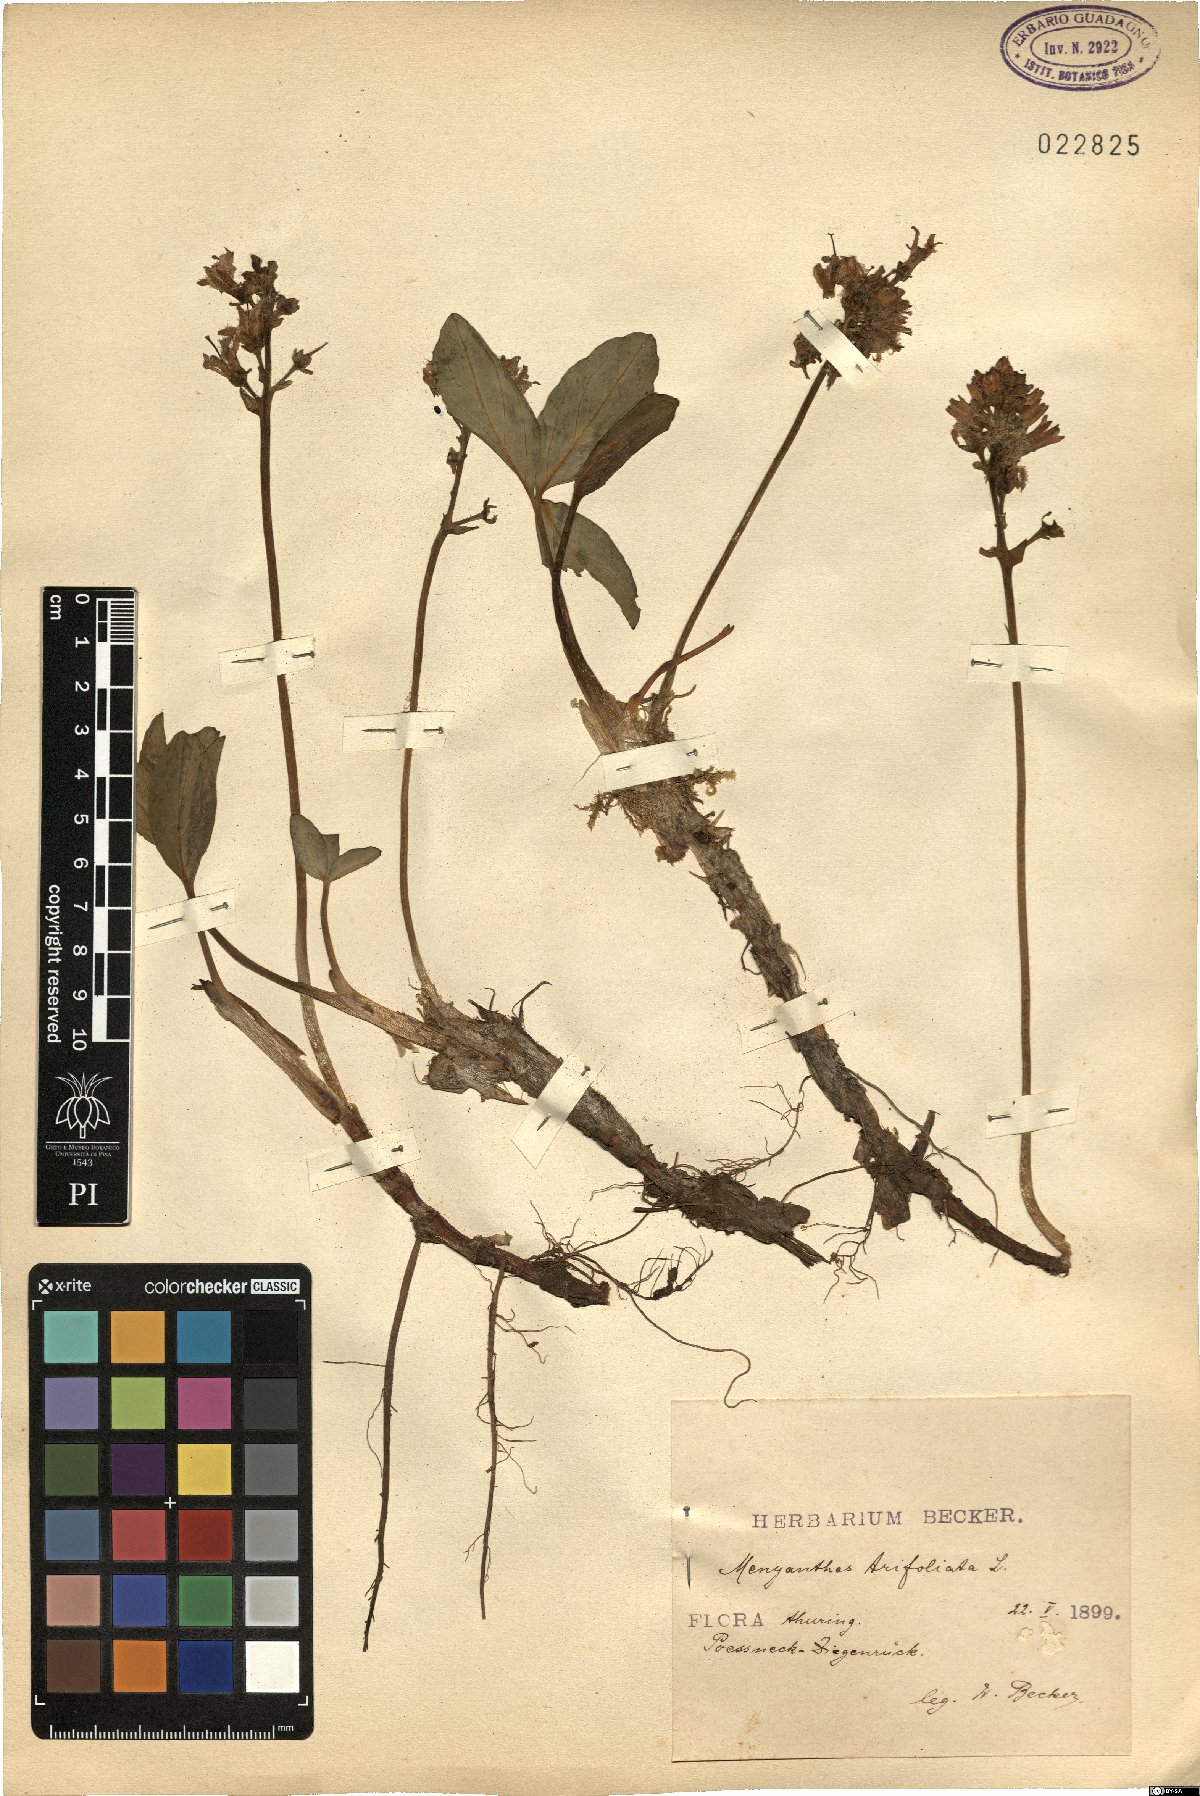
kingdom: Plantae
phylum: Tracheophyta
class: Magnoliopsida
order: Asterales
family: Menyanthaceae
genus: Menyanthes
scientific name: Menyanthes trifoliata
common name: Bogbean
